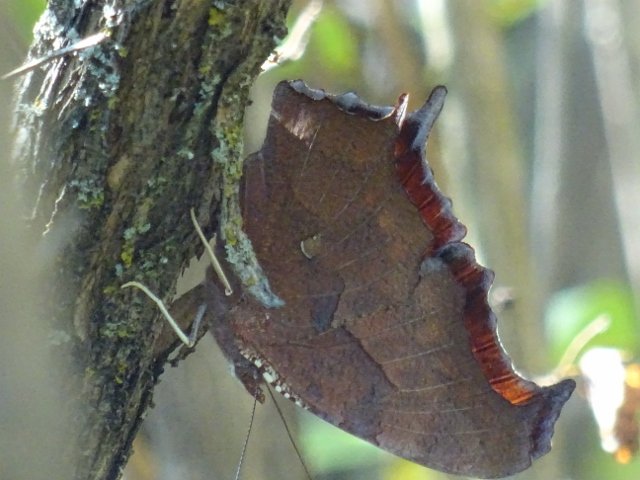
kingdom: Animalia
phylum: Arthropoda
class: Insecta
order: Lepidoptera
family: Nymphalidae
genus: Polygonia
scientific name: Polygonia interrogationis
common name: Question Mark
